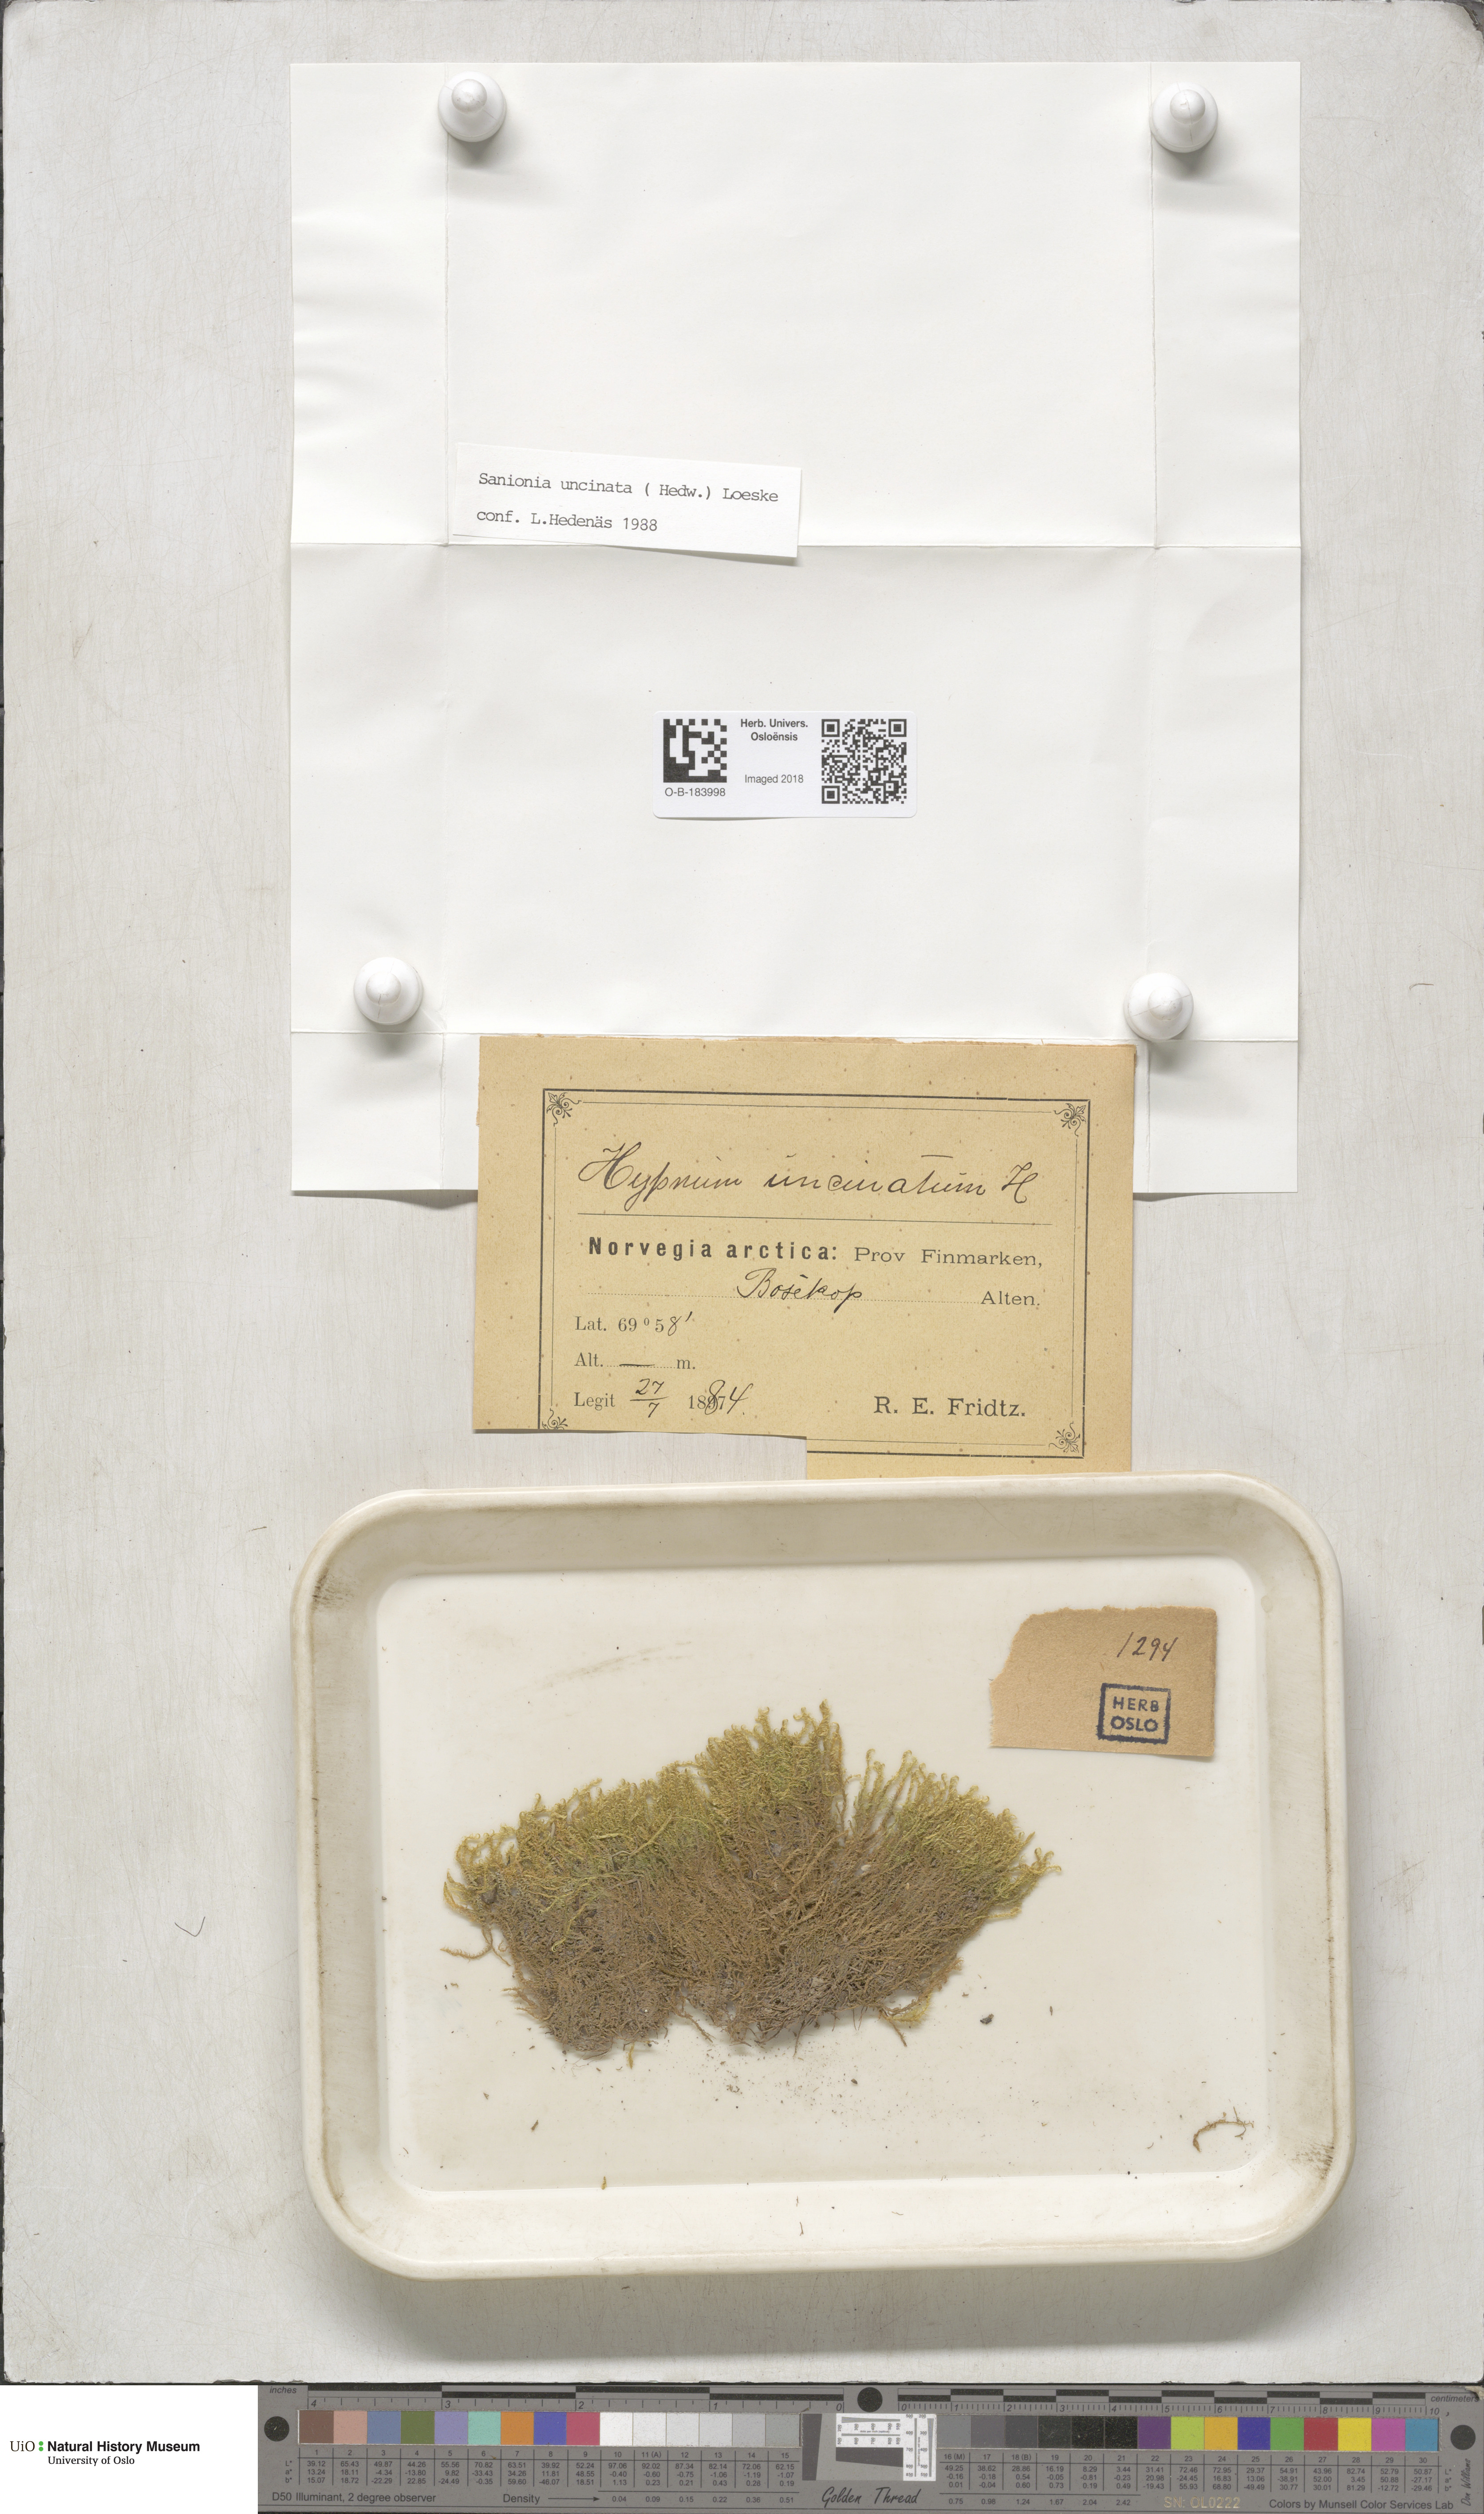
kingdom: Plantae
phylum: Bryophyta
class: Bryopsida
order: Hypnales
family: Scorpidiaceae
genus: Sanionia
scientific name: Sanionia uncinata
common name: Sickle moss
